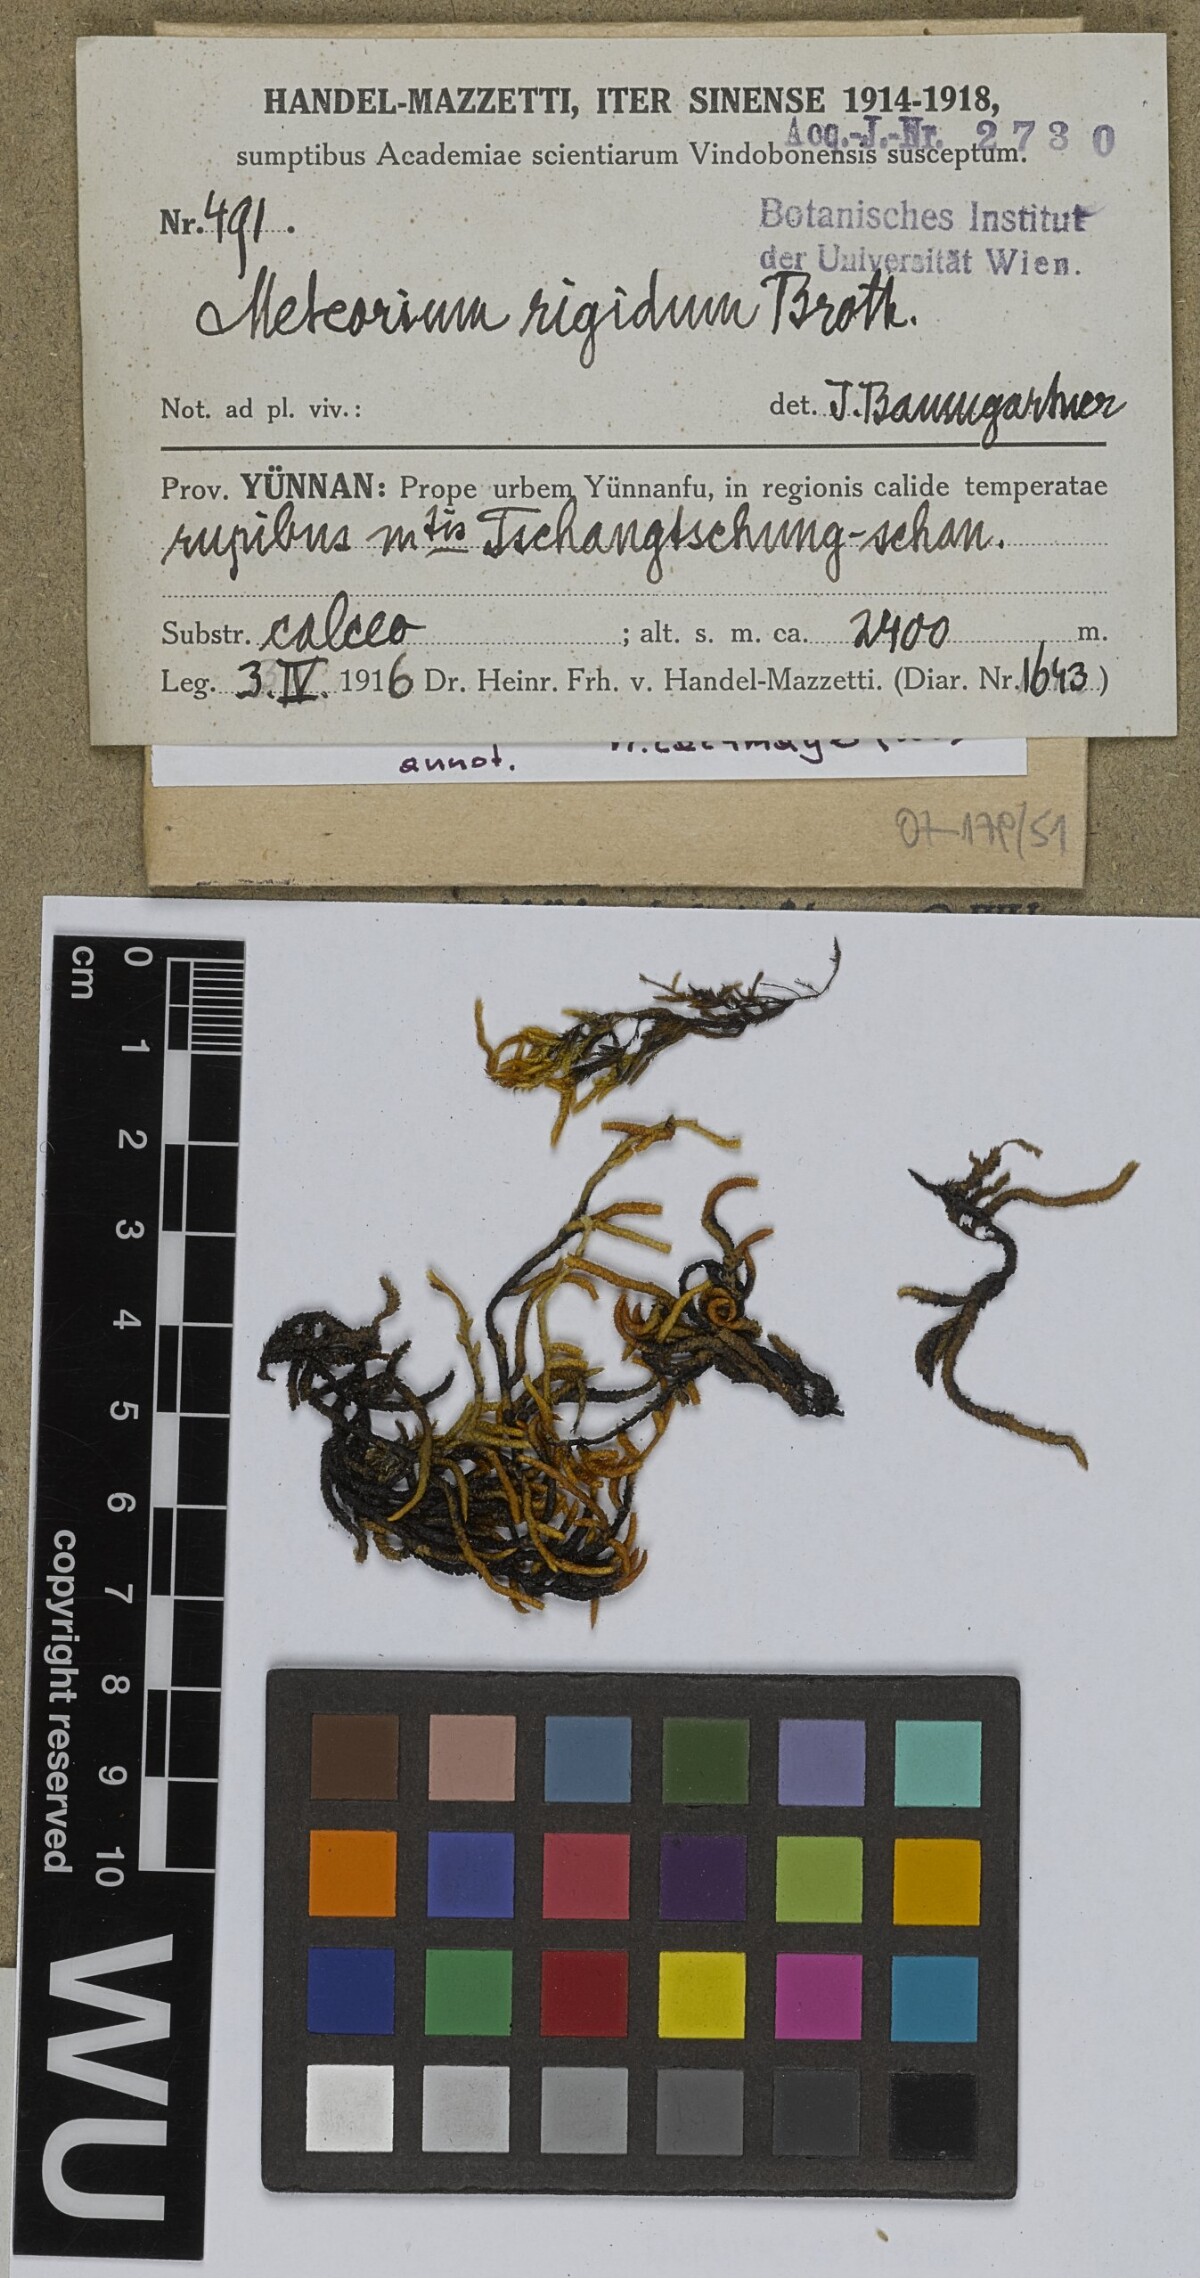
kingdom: Plantae
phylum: Bryophyta
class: Bryopsida
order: Hypnales
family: Meteoriaceae
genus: Meteorium
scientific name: Meteorium buchananii
